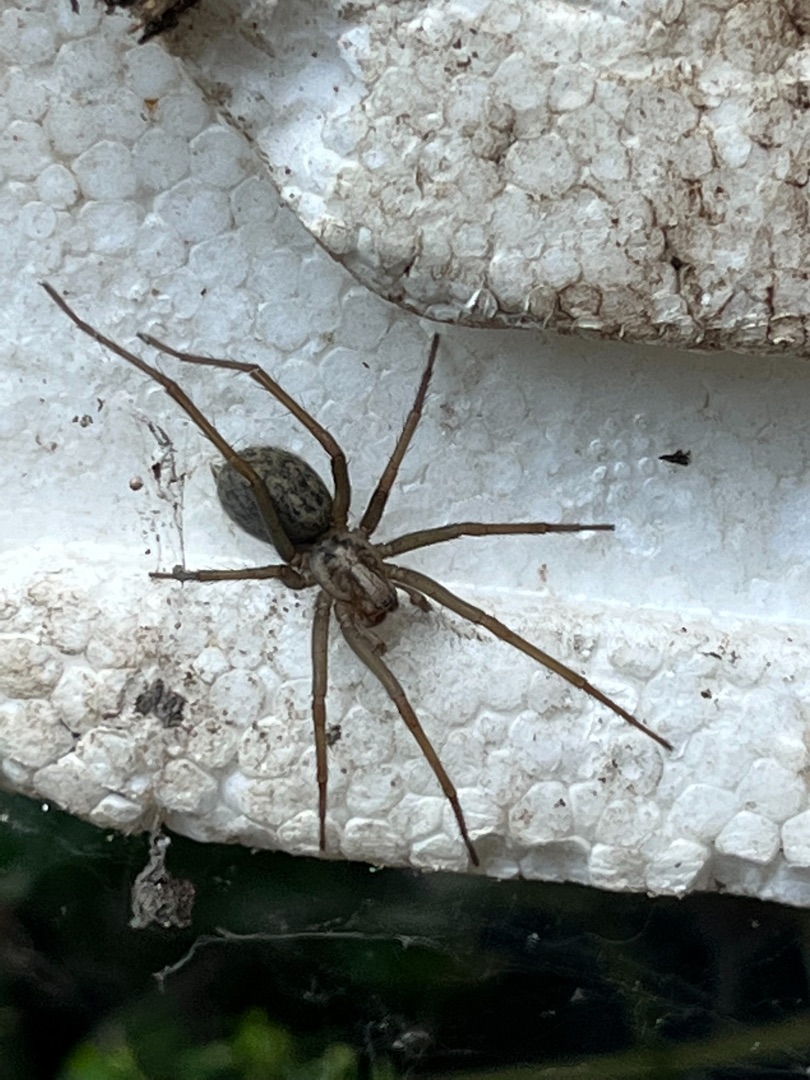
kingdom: Animalia
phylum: Arthropoda
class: Arachnida
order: Araneae
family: Agelenidae
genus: Eratigena
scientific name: Eratigena atrica
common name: Stor husedderkop
